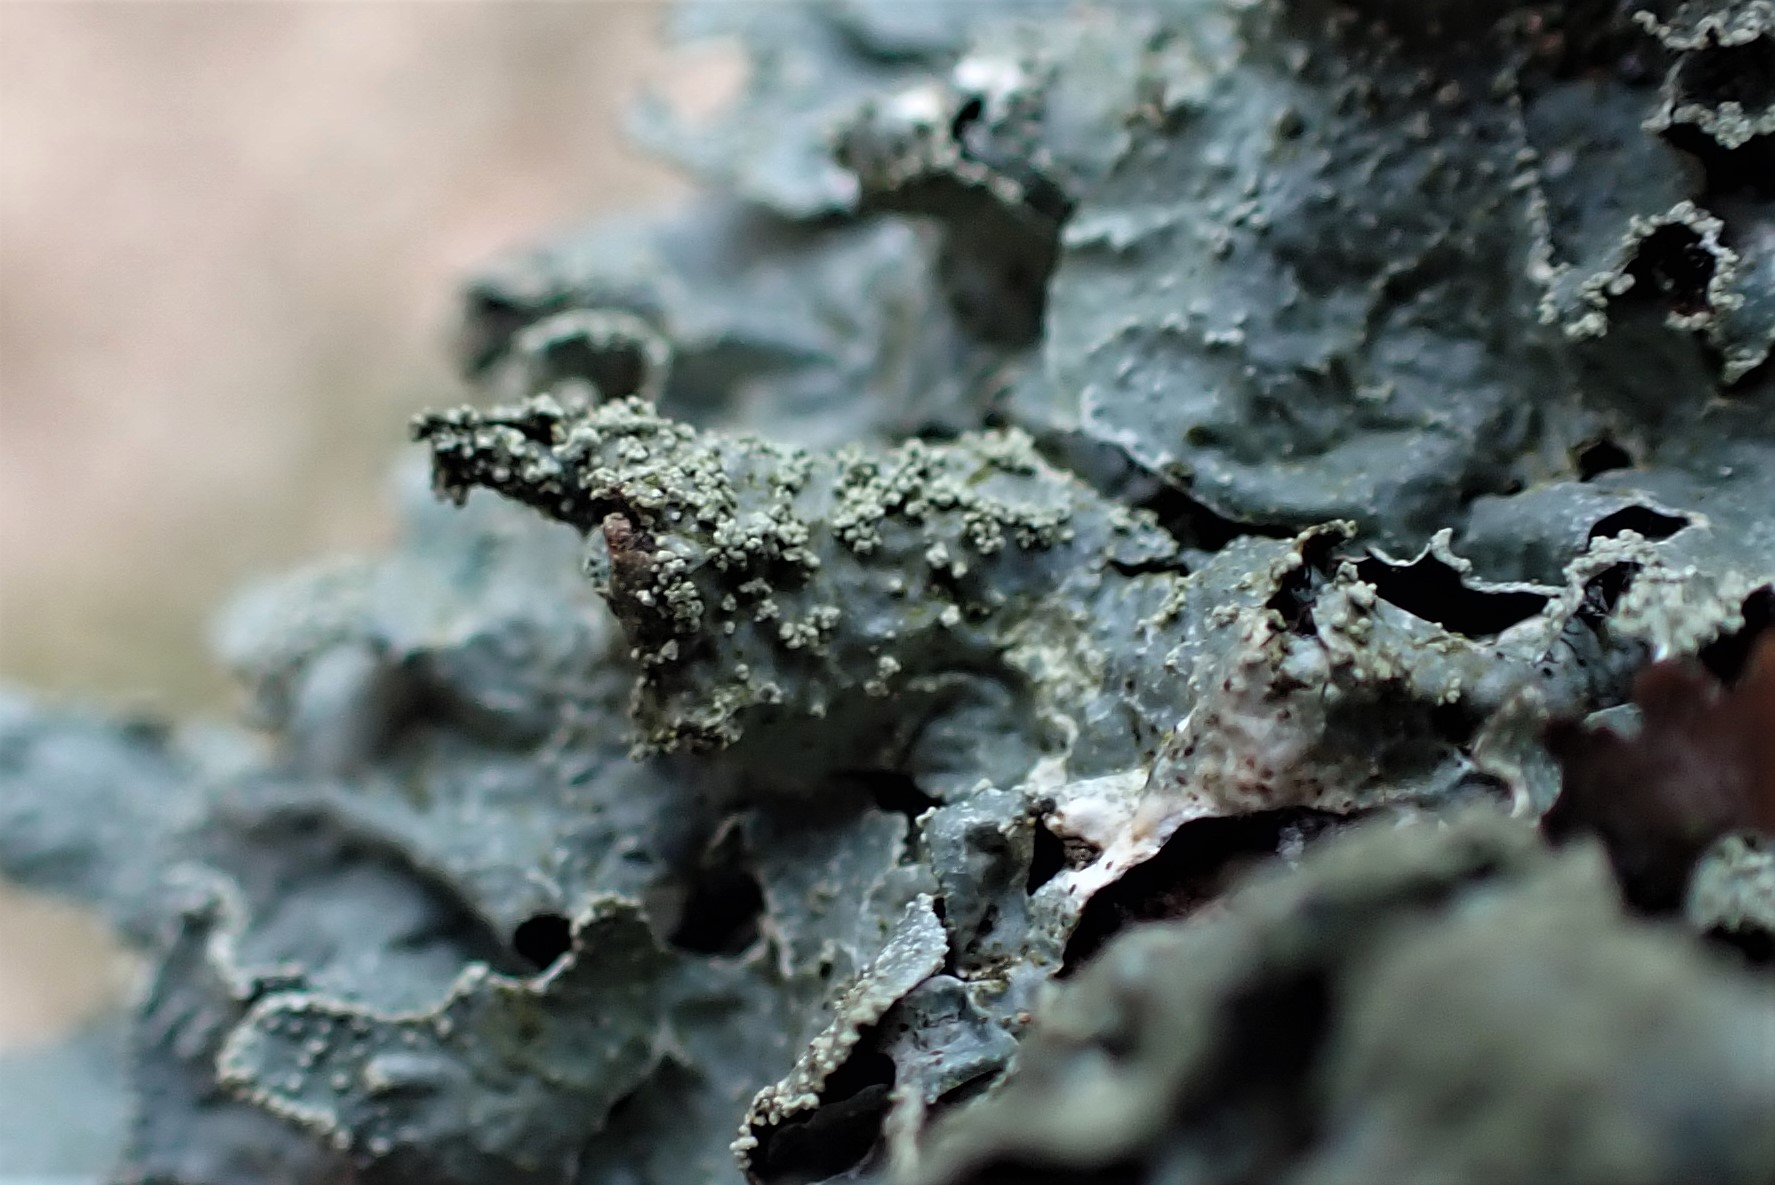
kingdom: Fungi
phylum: Ascomycota
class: Lecanoromycetes
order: Lecanorales
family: Parmeliaceae
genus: Parmelia
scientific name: Parmelia submontana
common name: langlobet skållav
